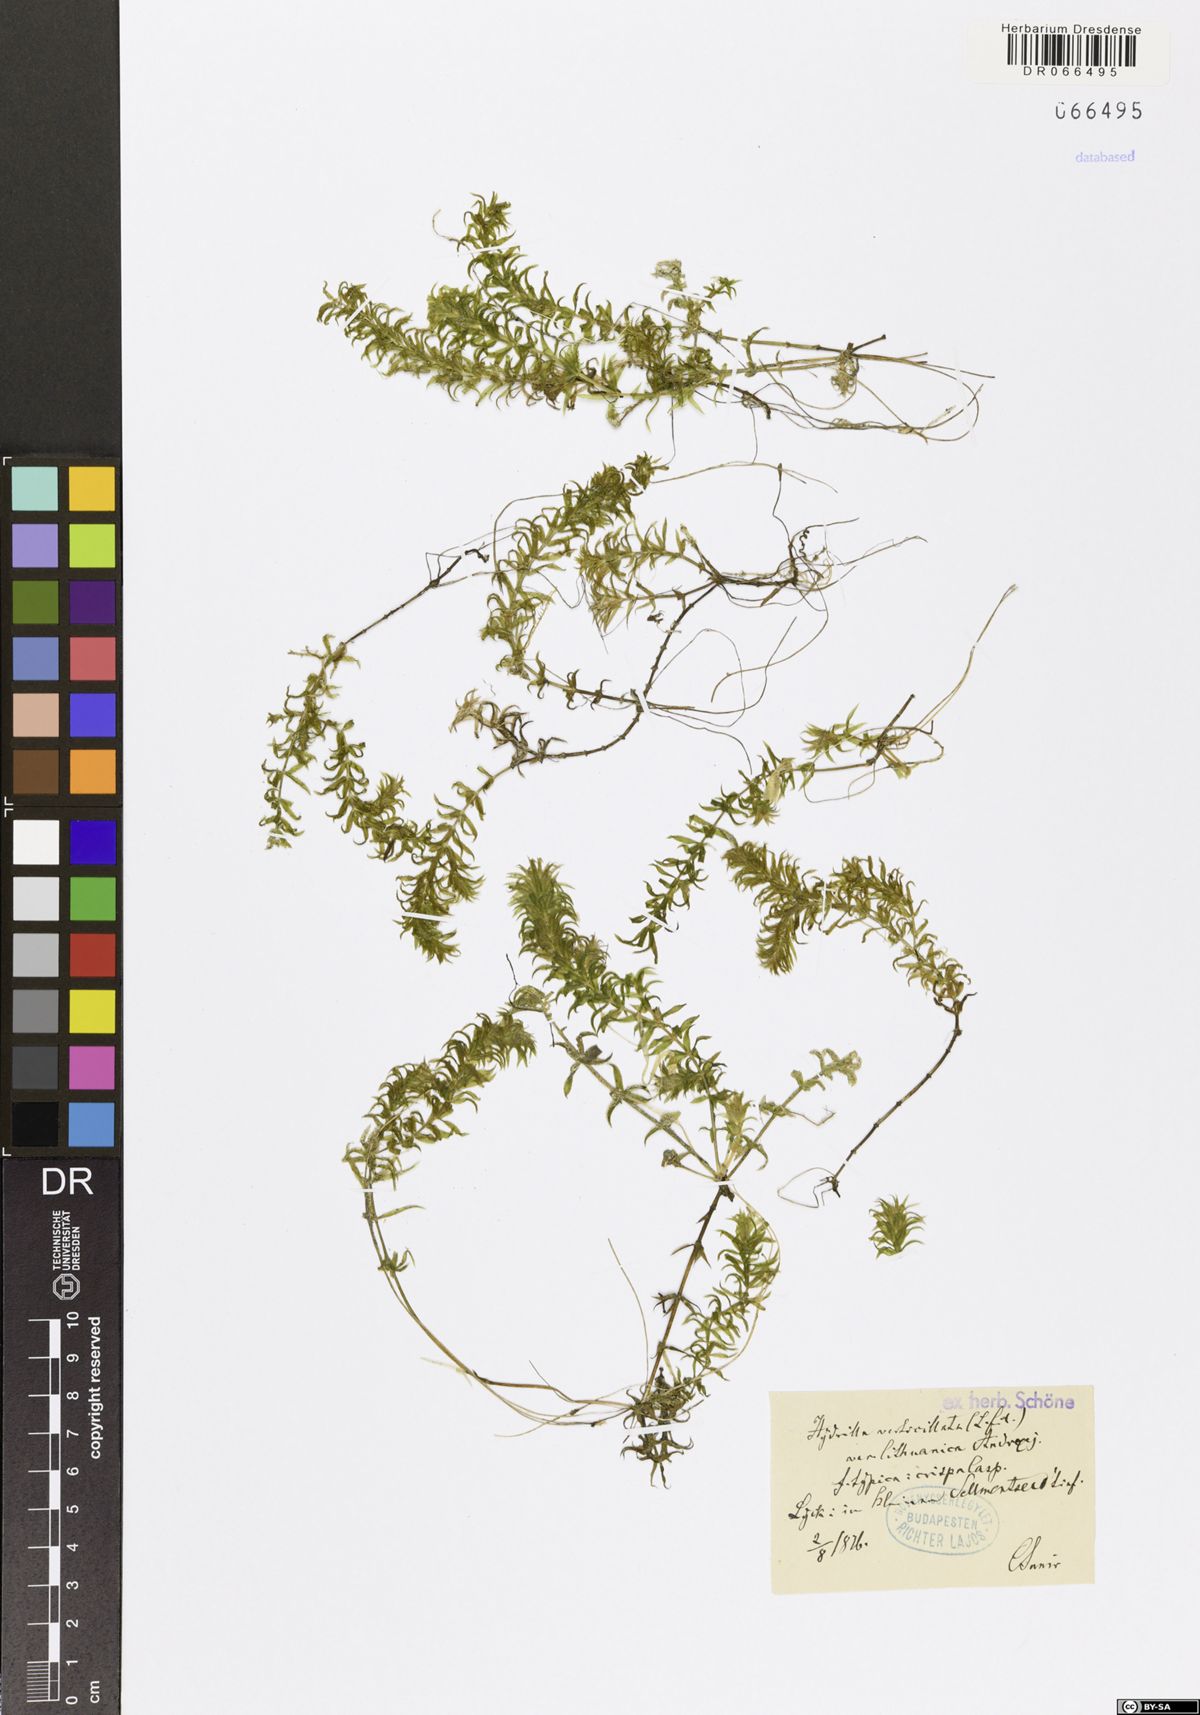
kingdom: Plantae
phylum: Tracheophyta
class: Liliopsida
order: Alismatales
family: Hydrocharitaceae
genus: Hydrilla
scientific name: Hydrilla verticillata
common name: Florida-elodea
